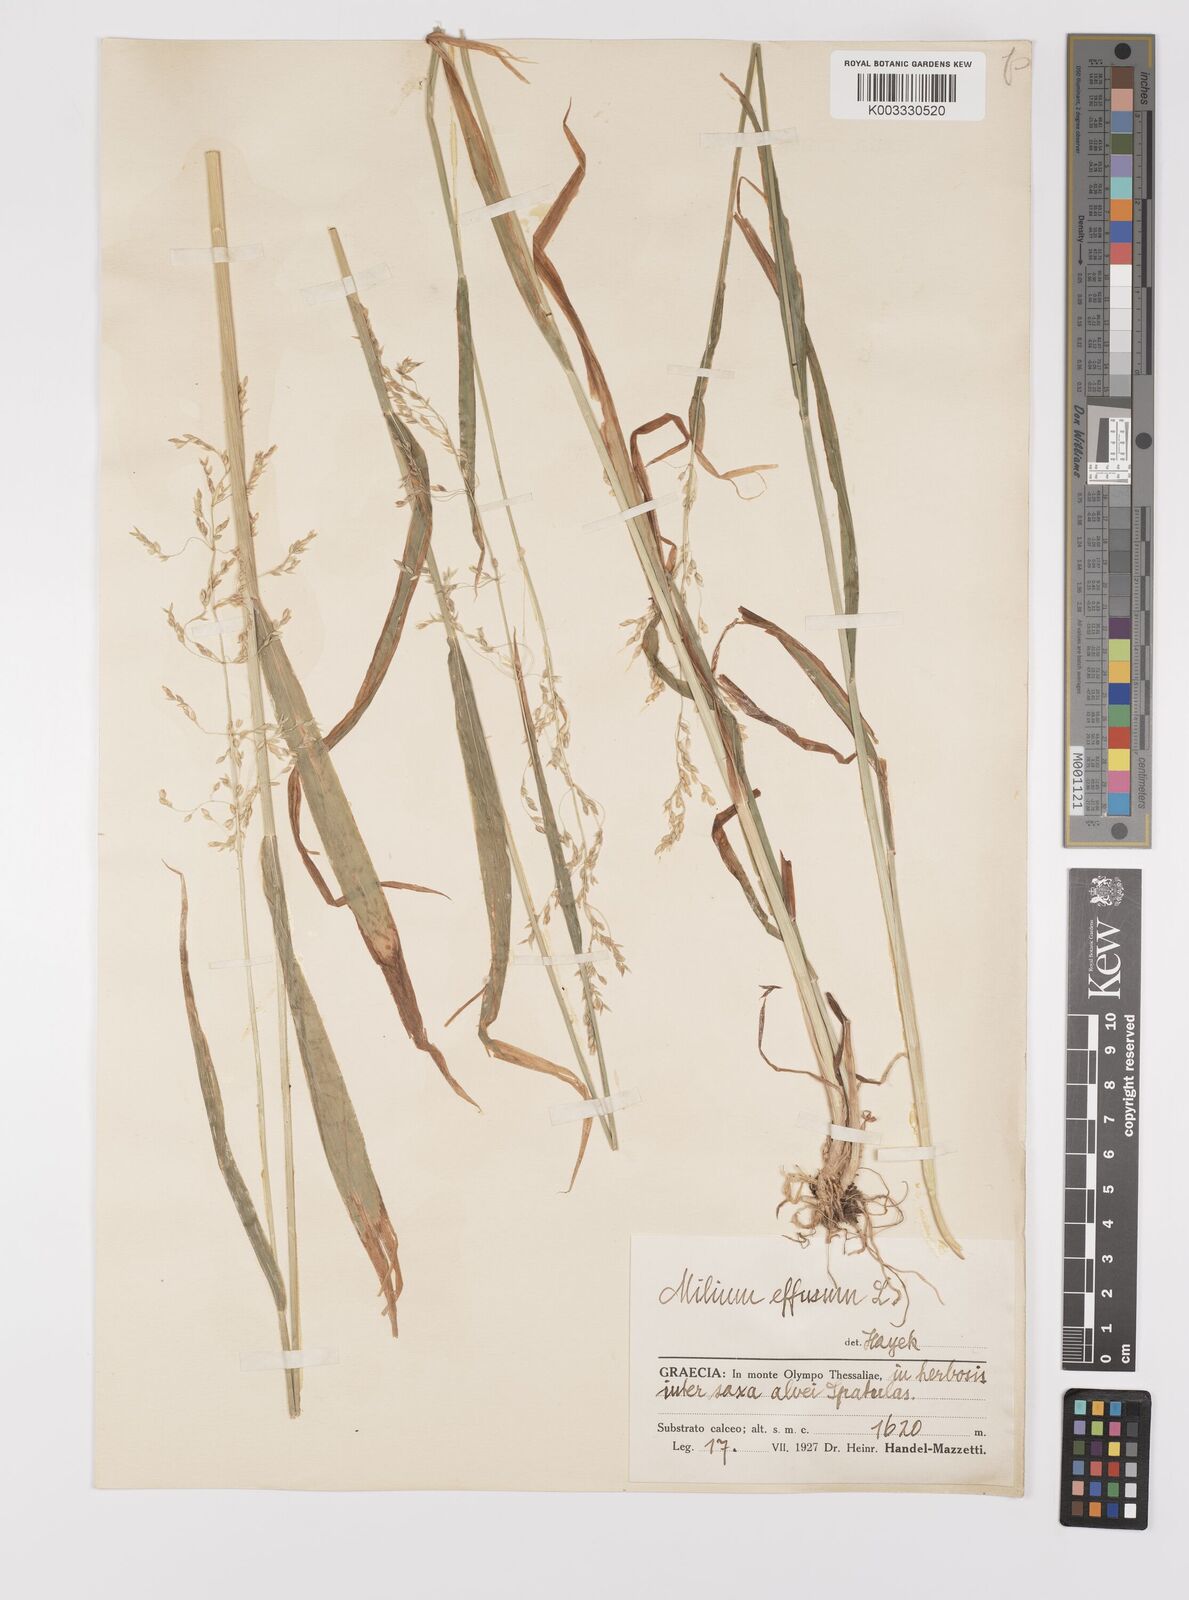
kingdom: Plantae
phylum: Tracheophyta
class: Liliopsida
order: Poales
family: Poaceae
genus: Milium
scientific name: Milium
